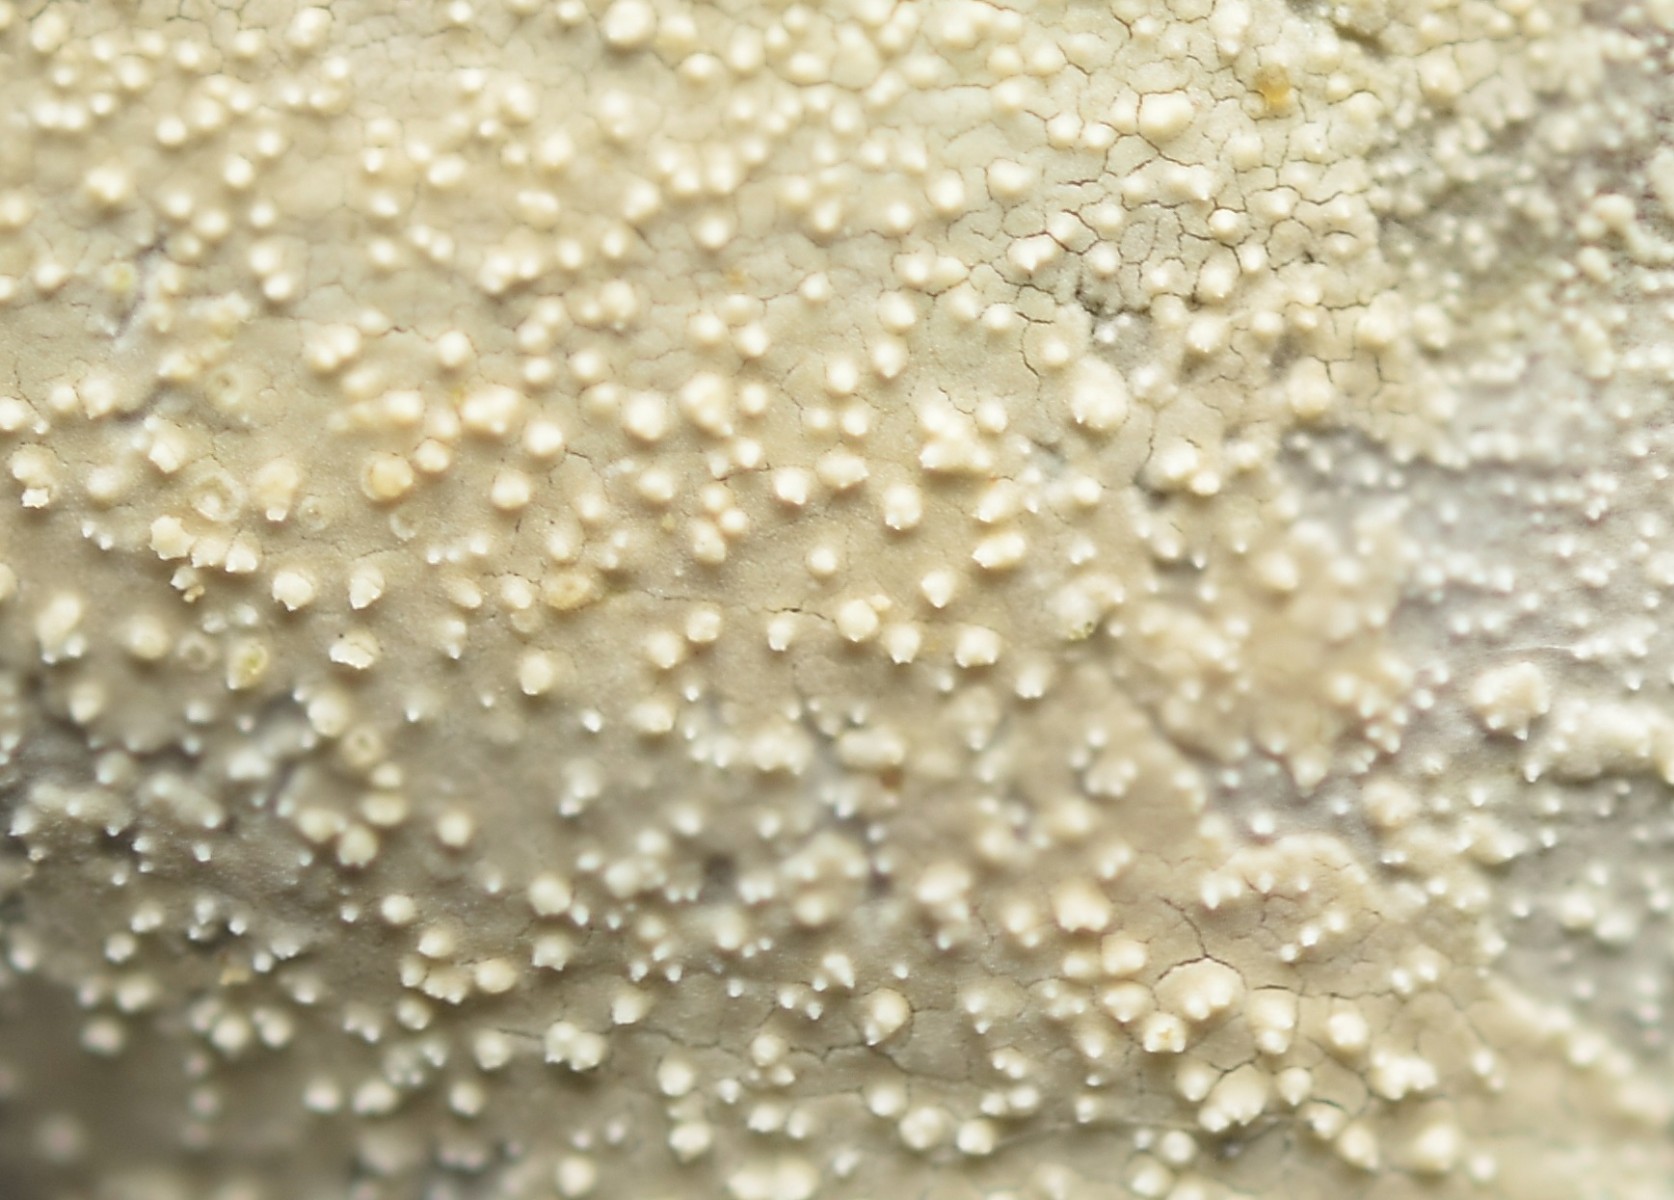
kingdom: Fungi
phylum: Basidiomycota
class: Agaricomycetes
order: Corticiales
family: Corticiaceae
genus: Lyomyces
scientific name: Lyomyces crustosus
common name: vortet hyldehinde
